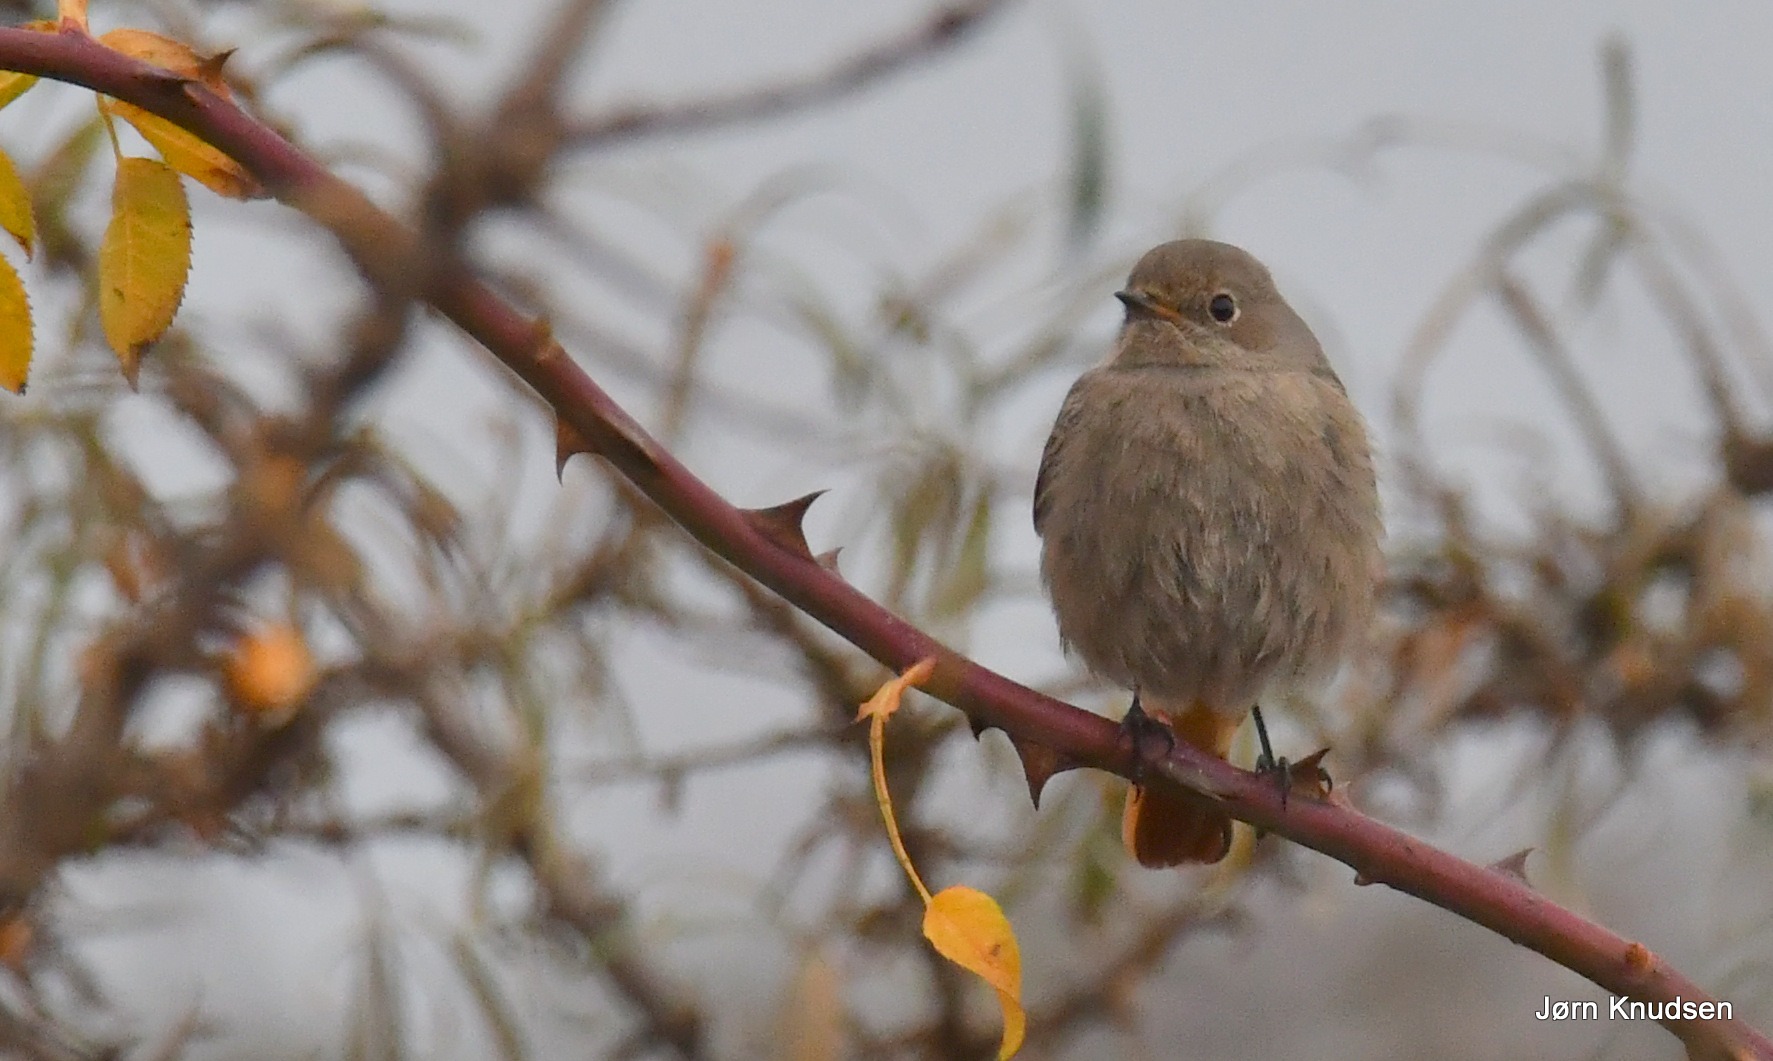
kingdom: Animalia
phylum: Chordata
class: Aves
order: Passeriformes
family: Muscicapidae
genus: Phoenicurus
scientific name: Phoenicurus ochruros
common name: Husrødstjert
